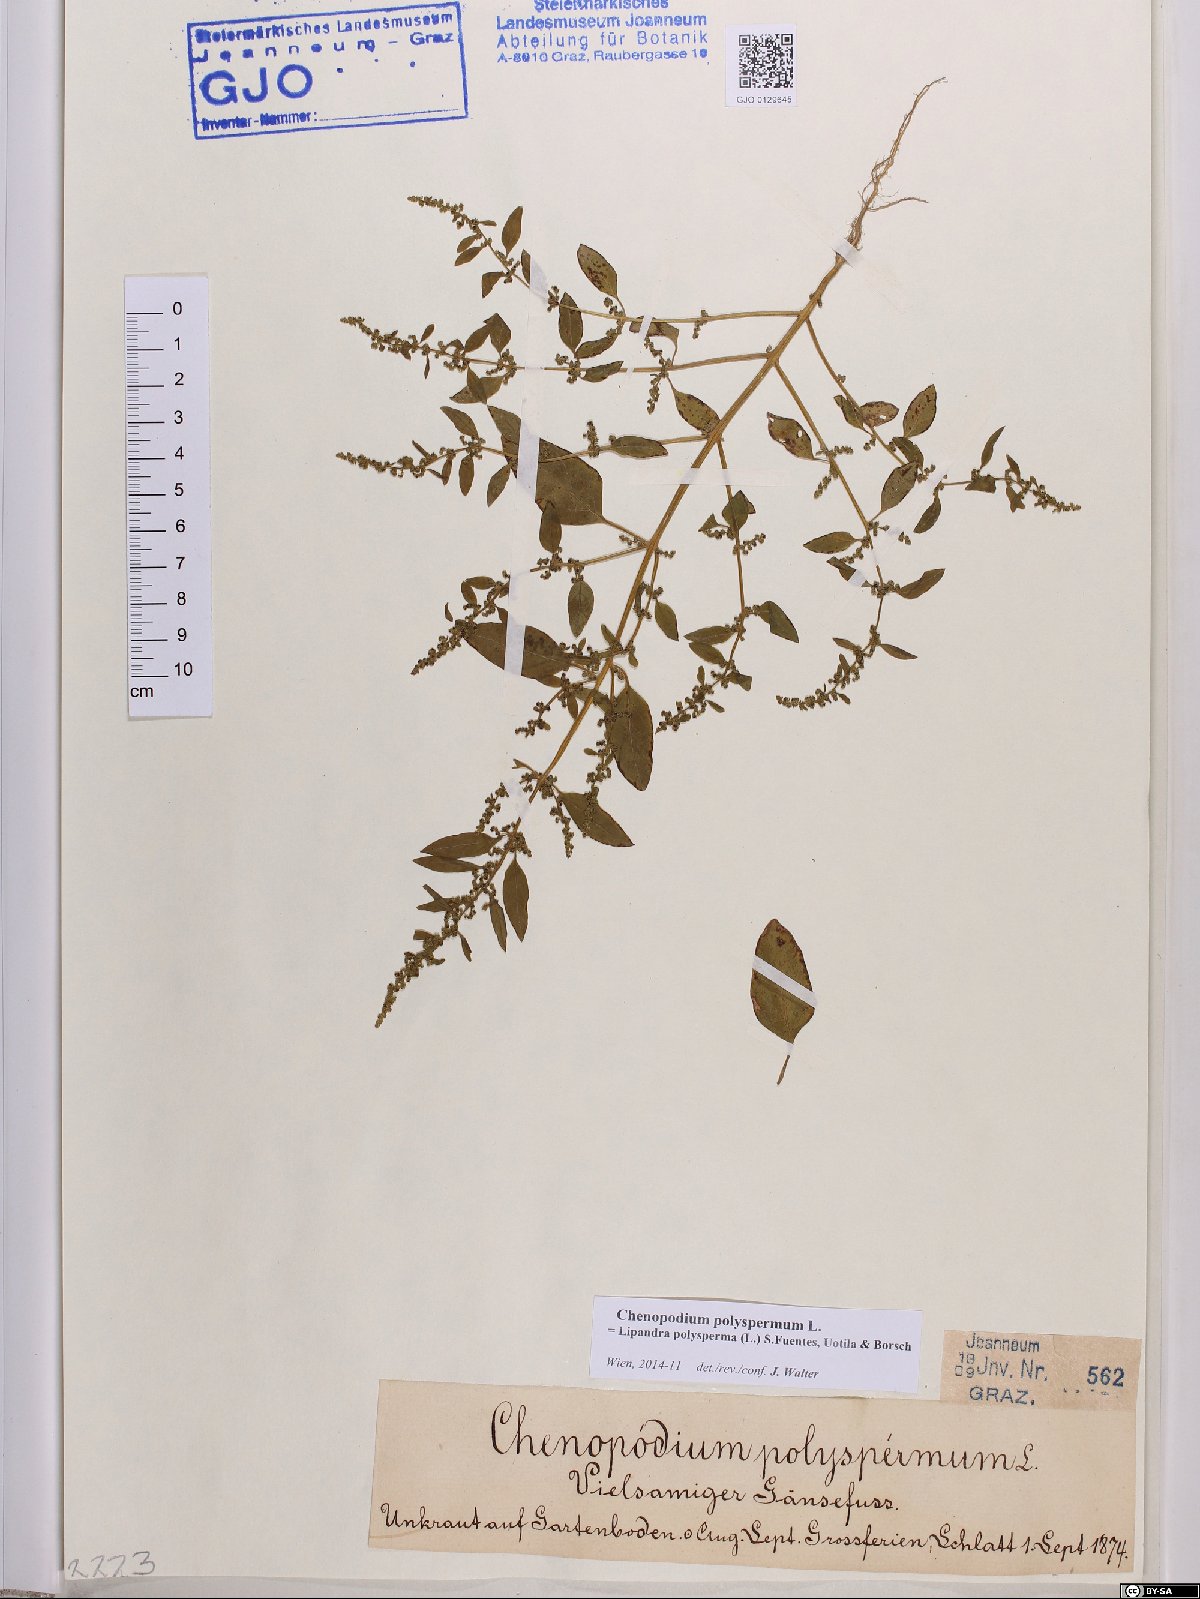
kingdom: Plantae
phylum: Tracheophyta
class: Magnoliopsida
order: Caryophyllales
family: Amaranthaceae
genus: Lipandra
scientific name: Lipandra polysperma
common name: Many-seed goosefoot
